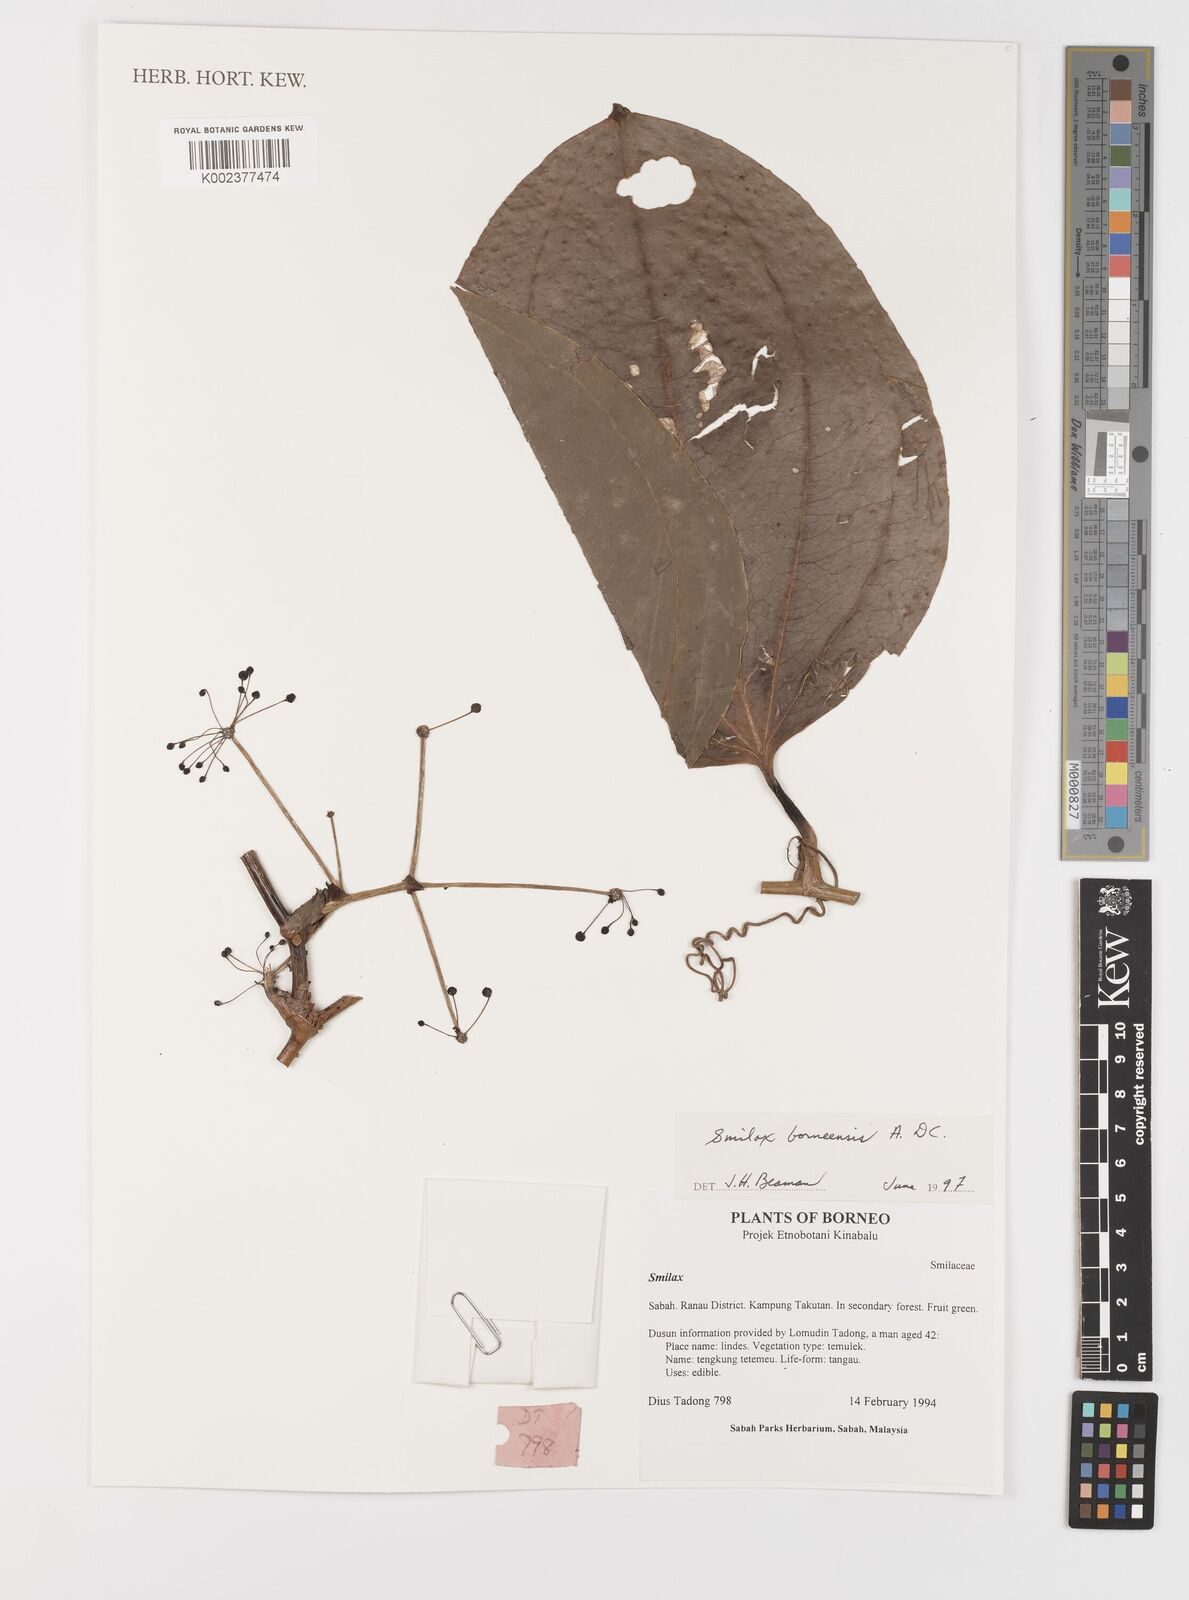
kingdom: Plantae
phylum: Tracheophyta
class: Liliopsida
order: Liliales
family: Smilacaceae
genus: Smilax
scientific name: Smilax borneensis
